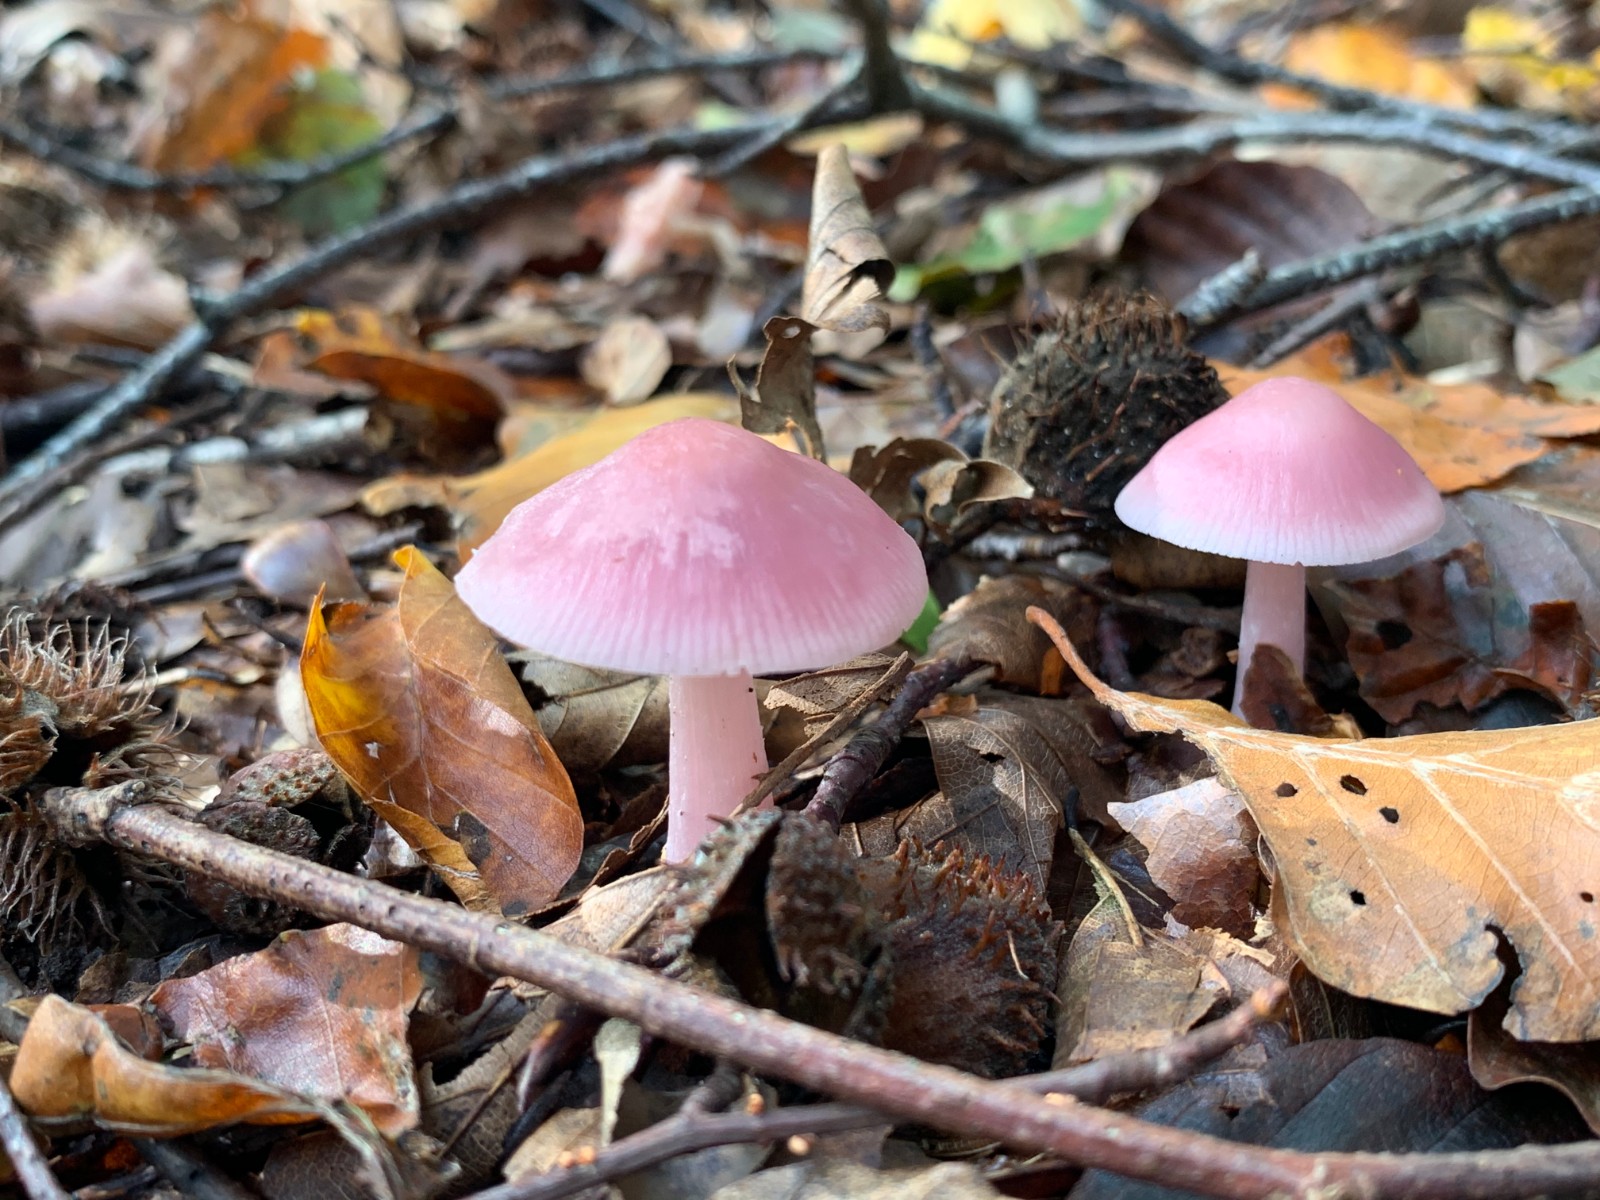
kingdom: Fungi
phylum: Basidiomycota
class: Agaricomycetes
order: Agaricales
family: Mycenaceae
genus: Mycena
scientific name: Mycena rosea
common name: rosa huesvamp
